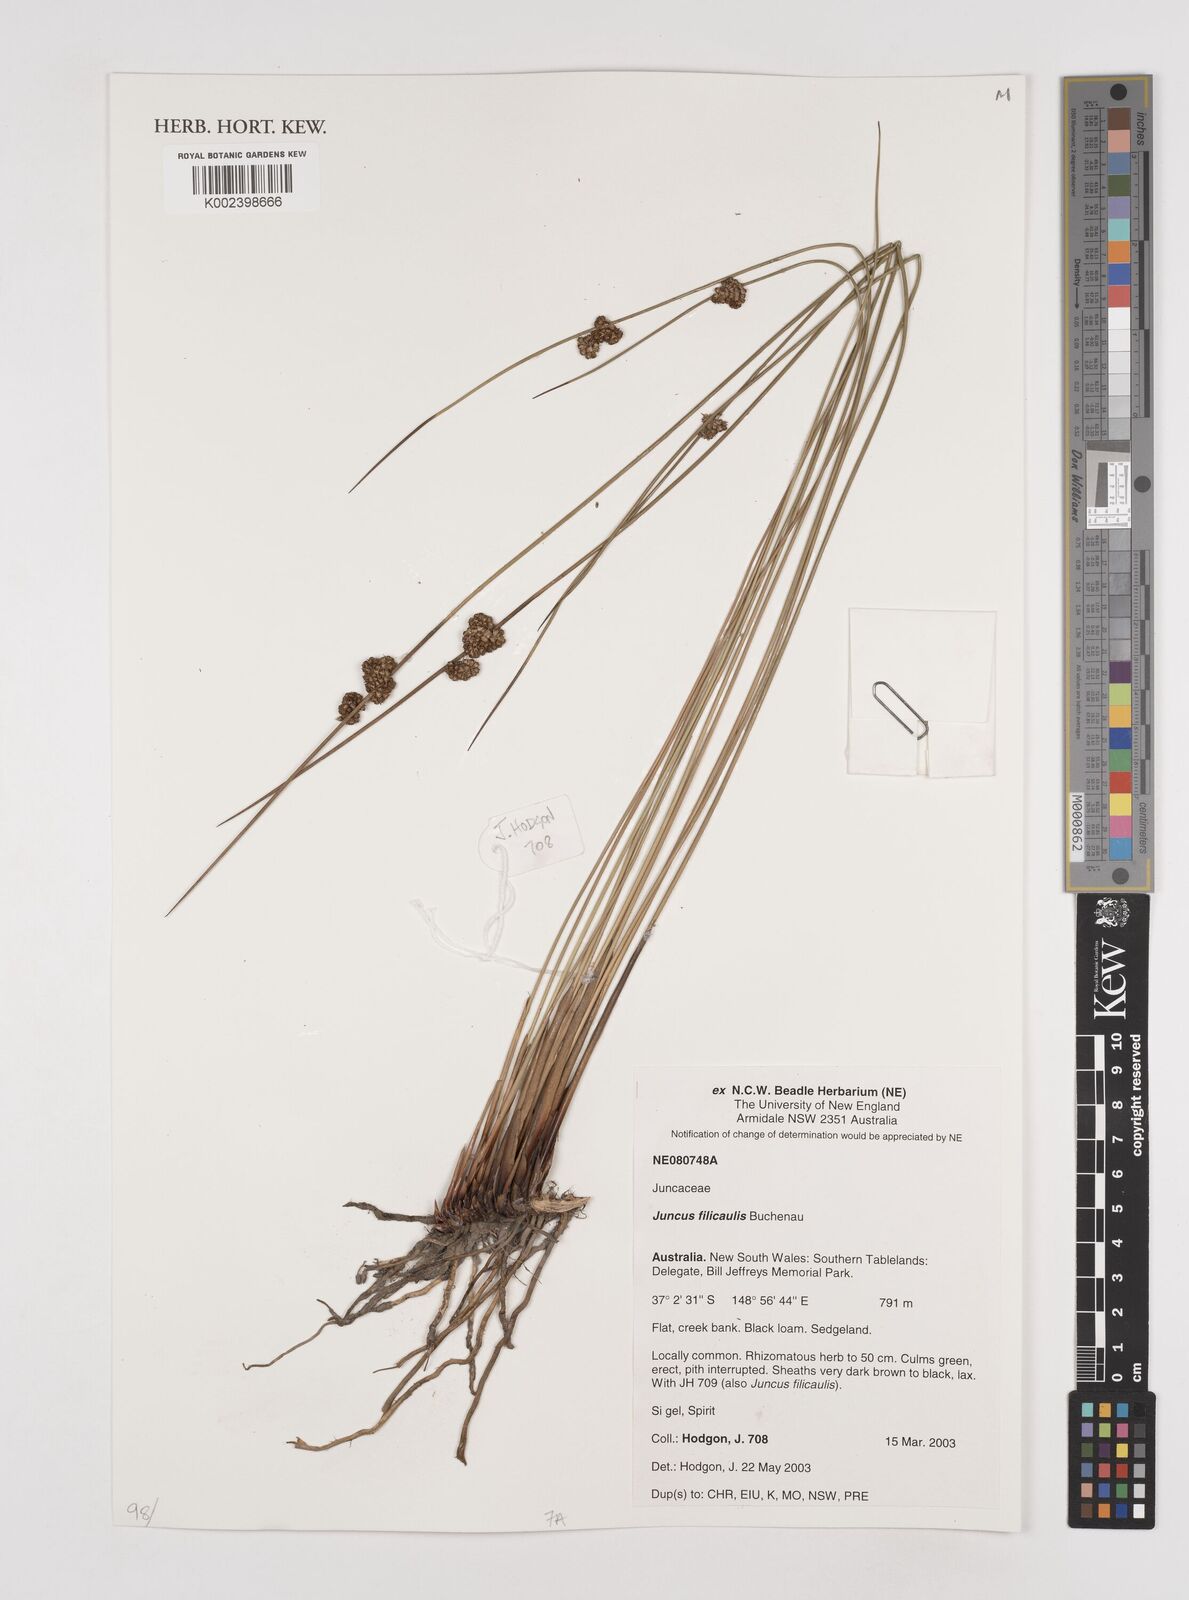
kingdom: Plantae
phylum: Tracheophyta
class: Liliopsida
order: Poales
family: Juncaceae
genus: Juncus
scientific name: Juncus filicaulis
